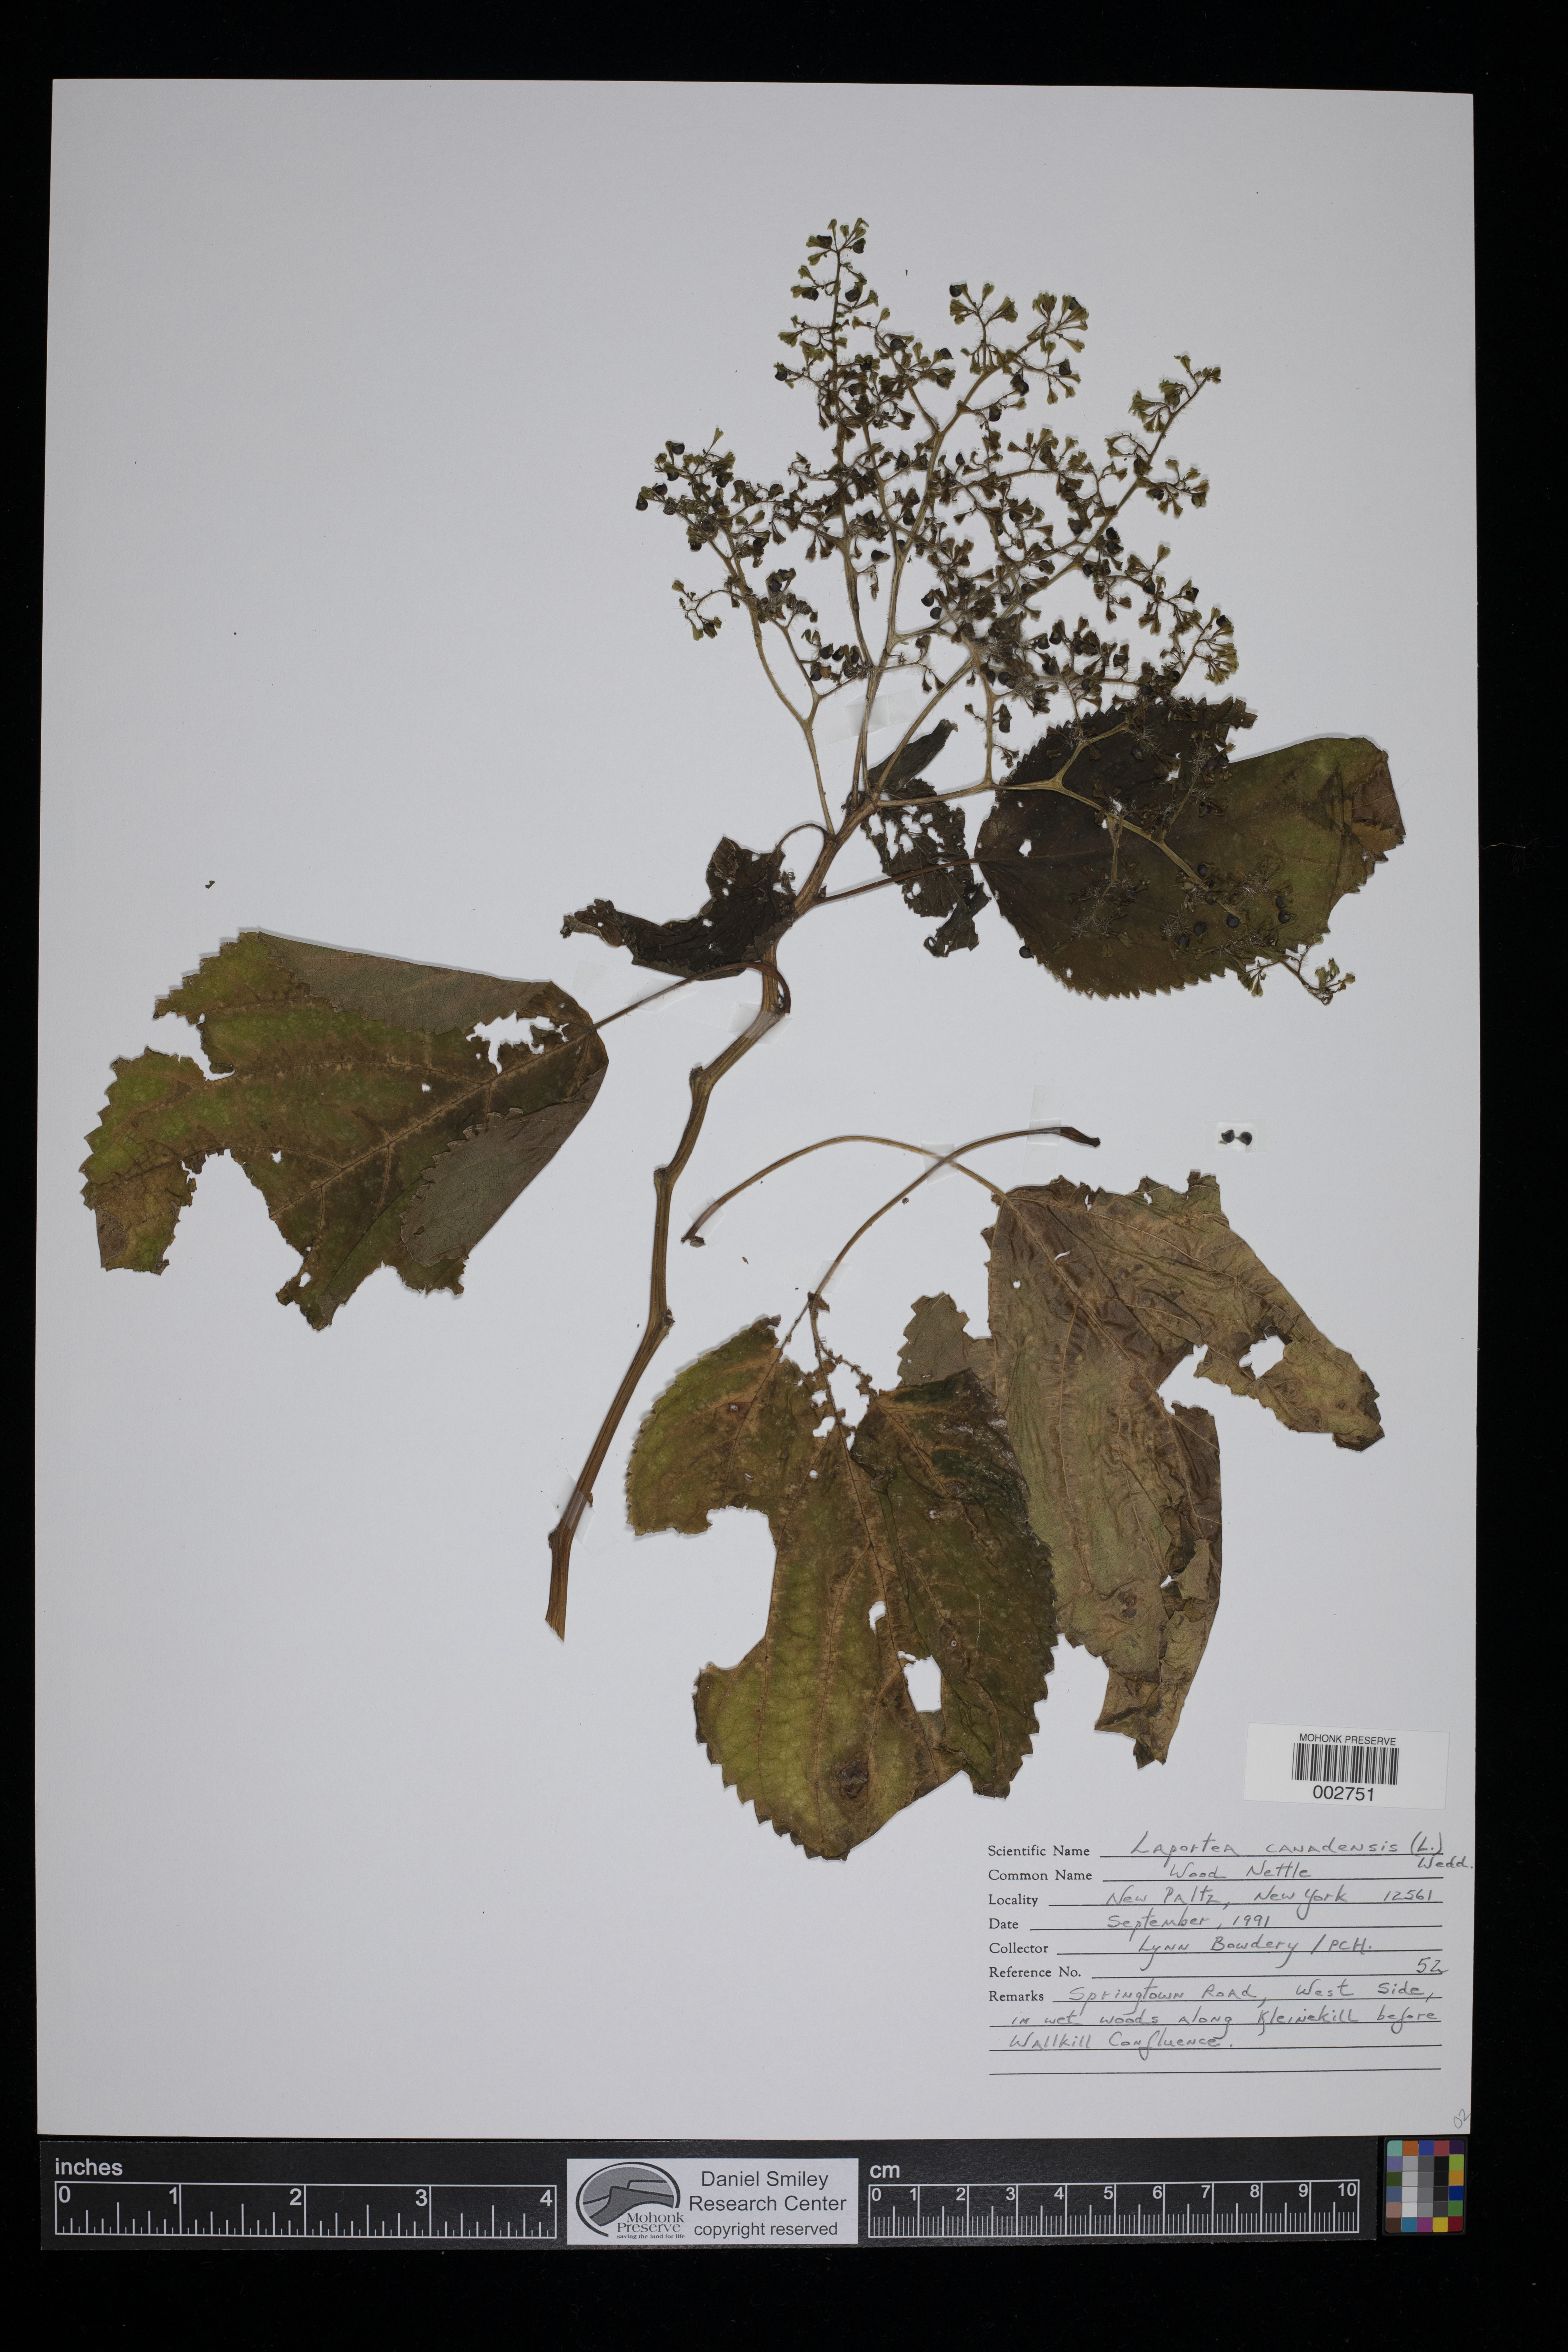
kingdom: Plantae
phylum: Tracheophyta
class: Magnoliopsida
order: Rosales
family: Urticaceae
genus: Laportea
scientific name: Laportea canadensis
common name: Canada nettle
